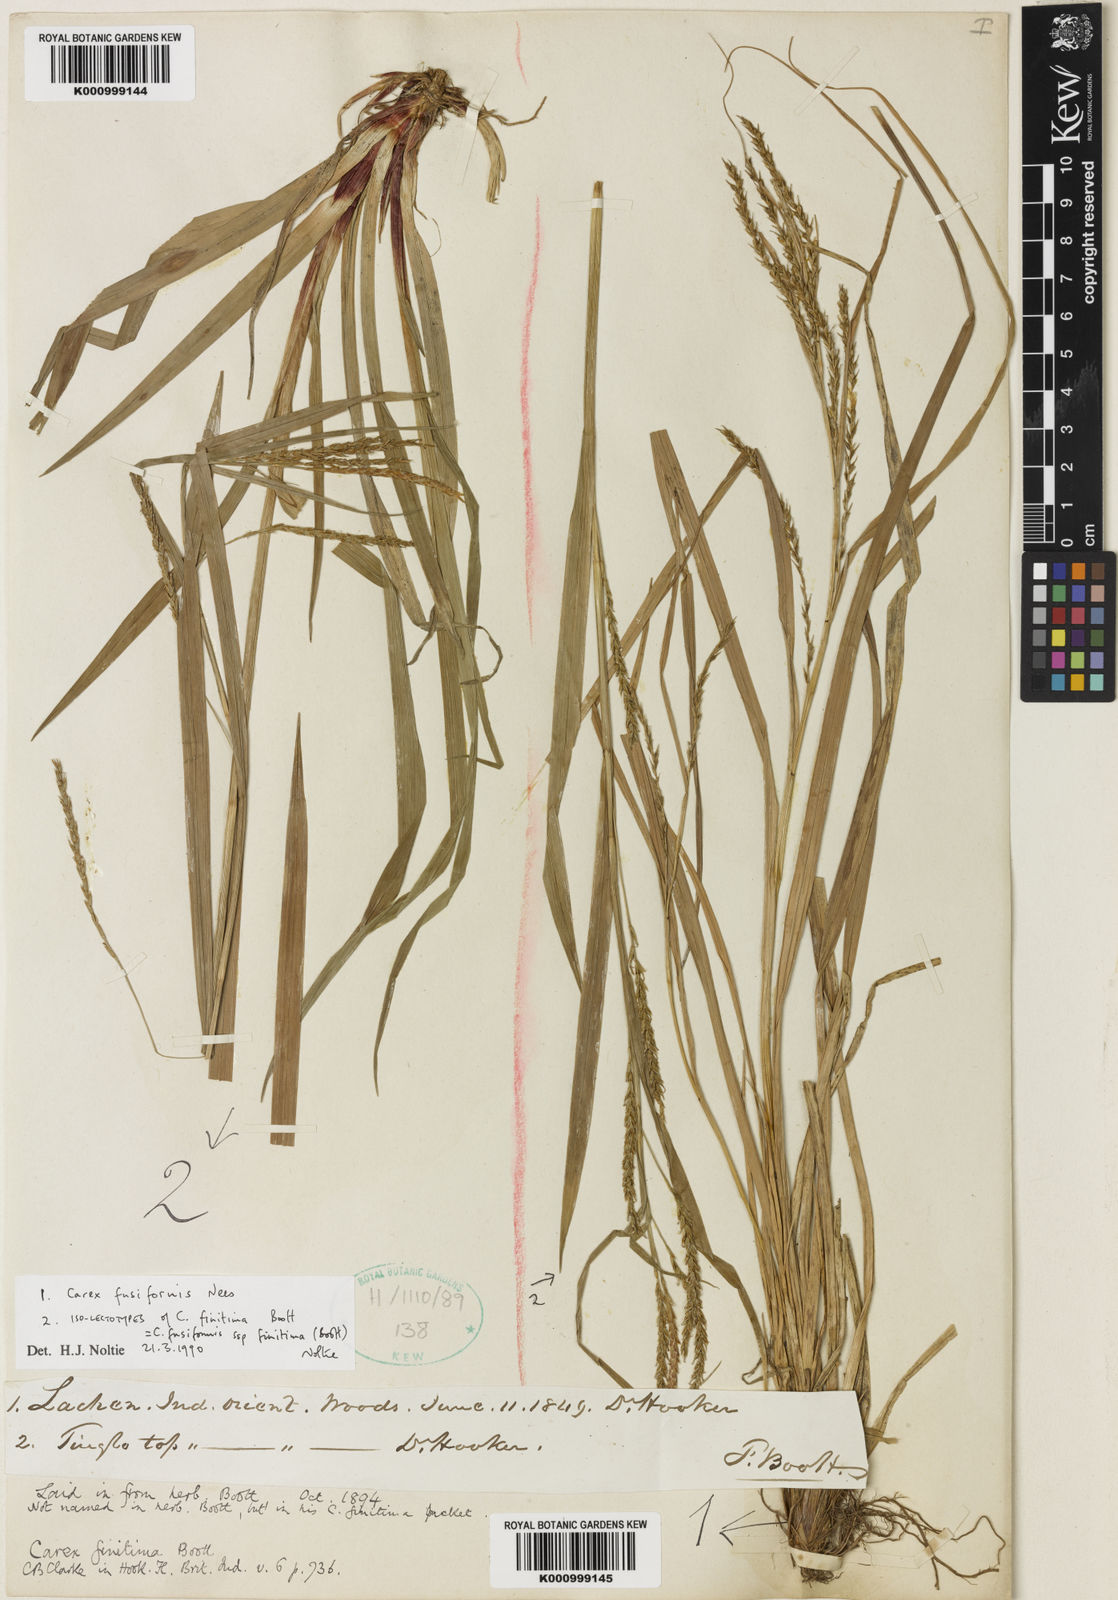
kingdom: Plantae
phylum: Tracheophyta
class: Liliopsida
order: Poales
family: Cyperaceae
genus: Carex
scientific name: Carex fusiformis
